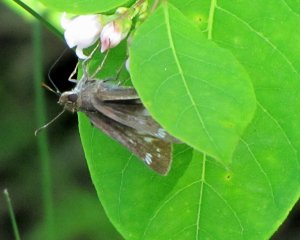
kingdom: Animalia
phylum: Arthropoda
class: Insecta
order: Lepidoptera
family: Hesperiidae
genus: Lon
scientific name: Lon hobomok
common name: Hobomok Skipper
